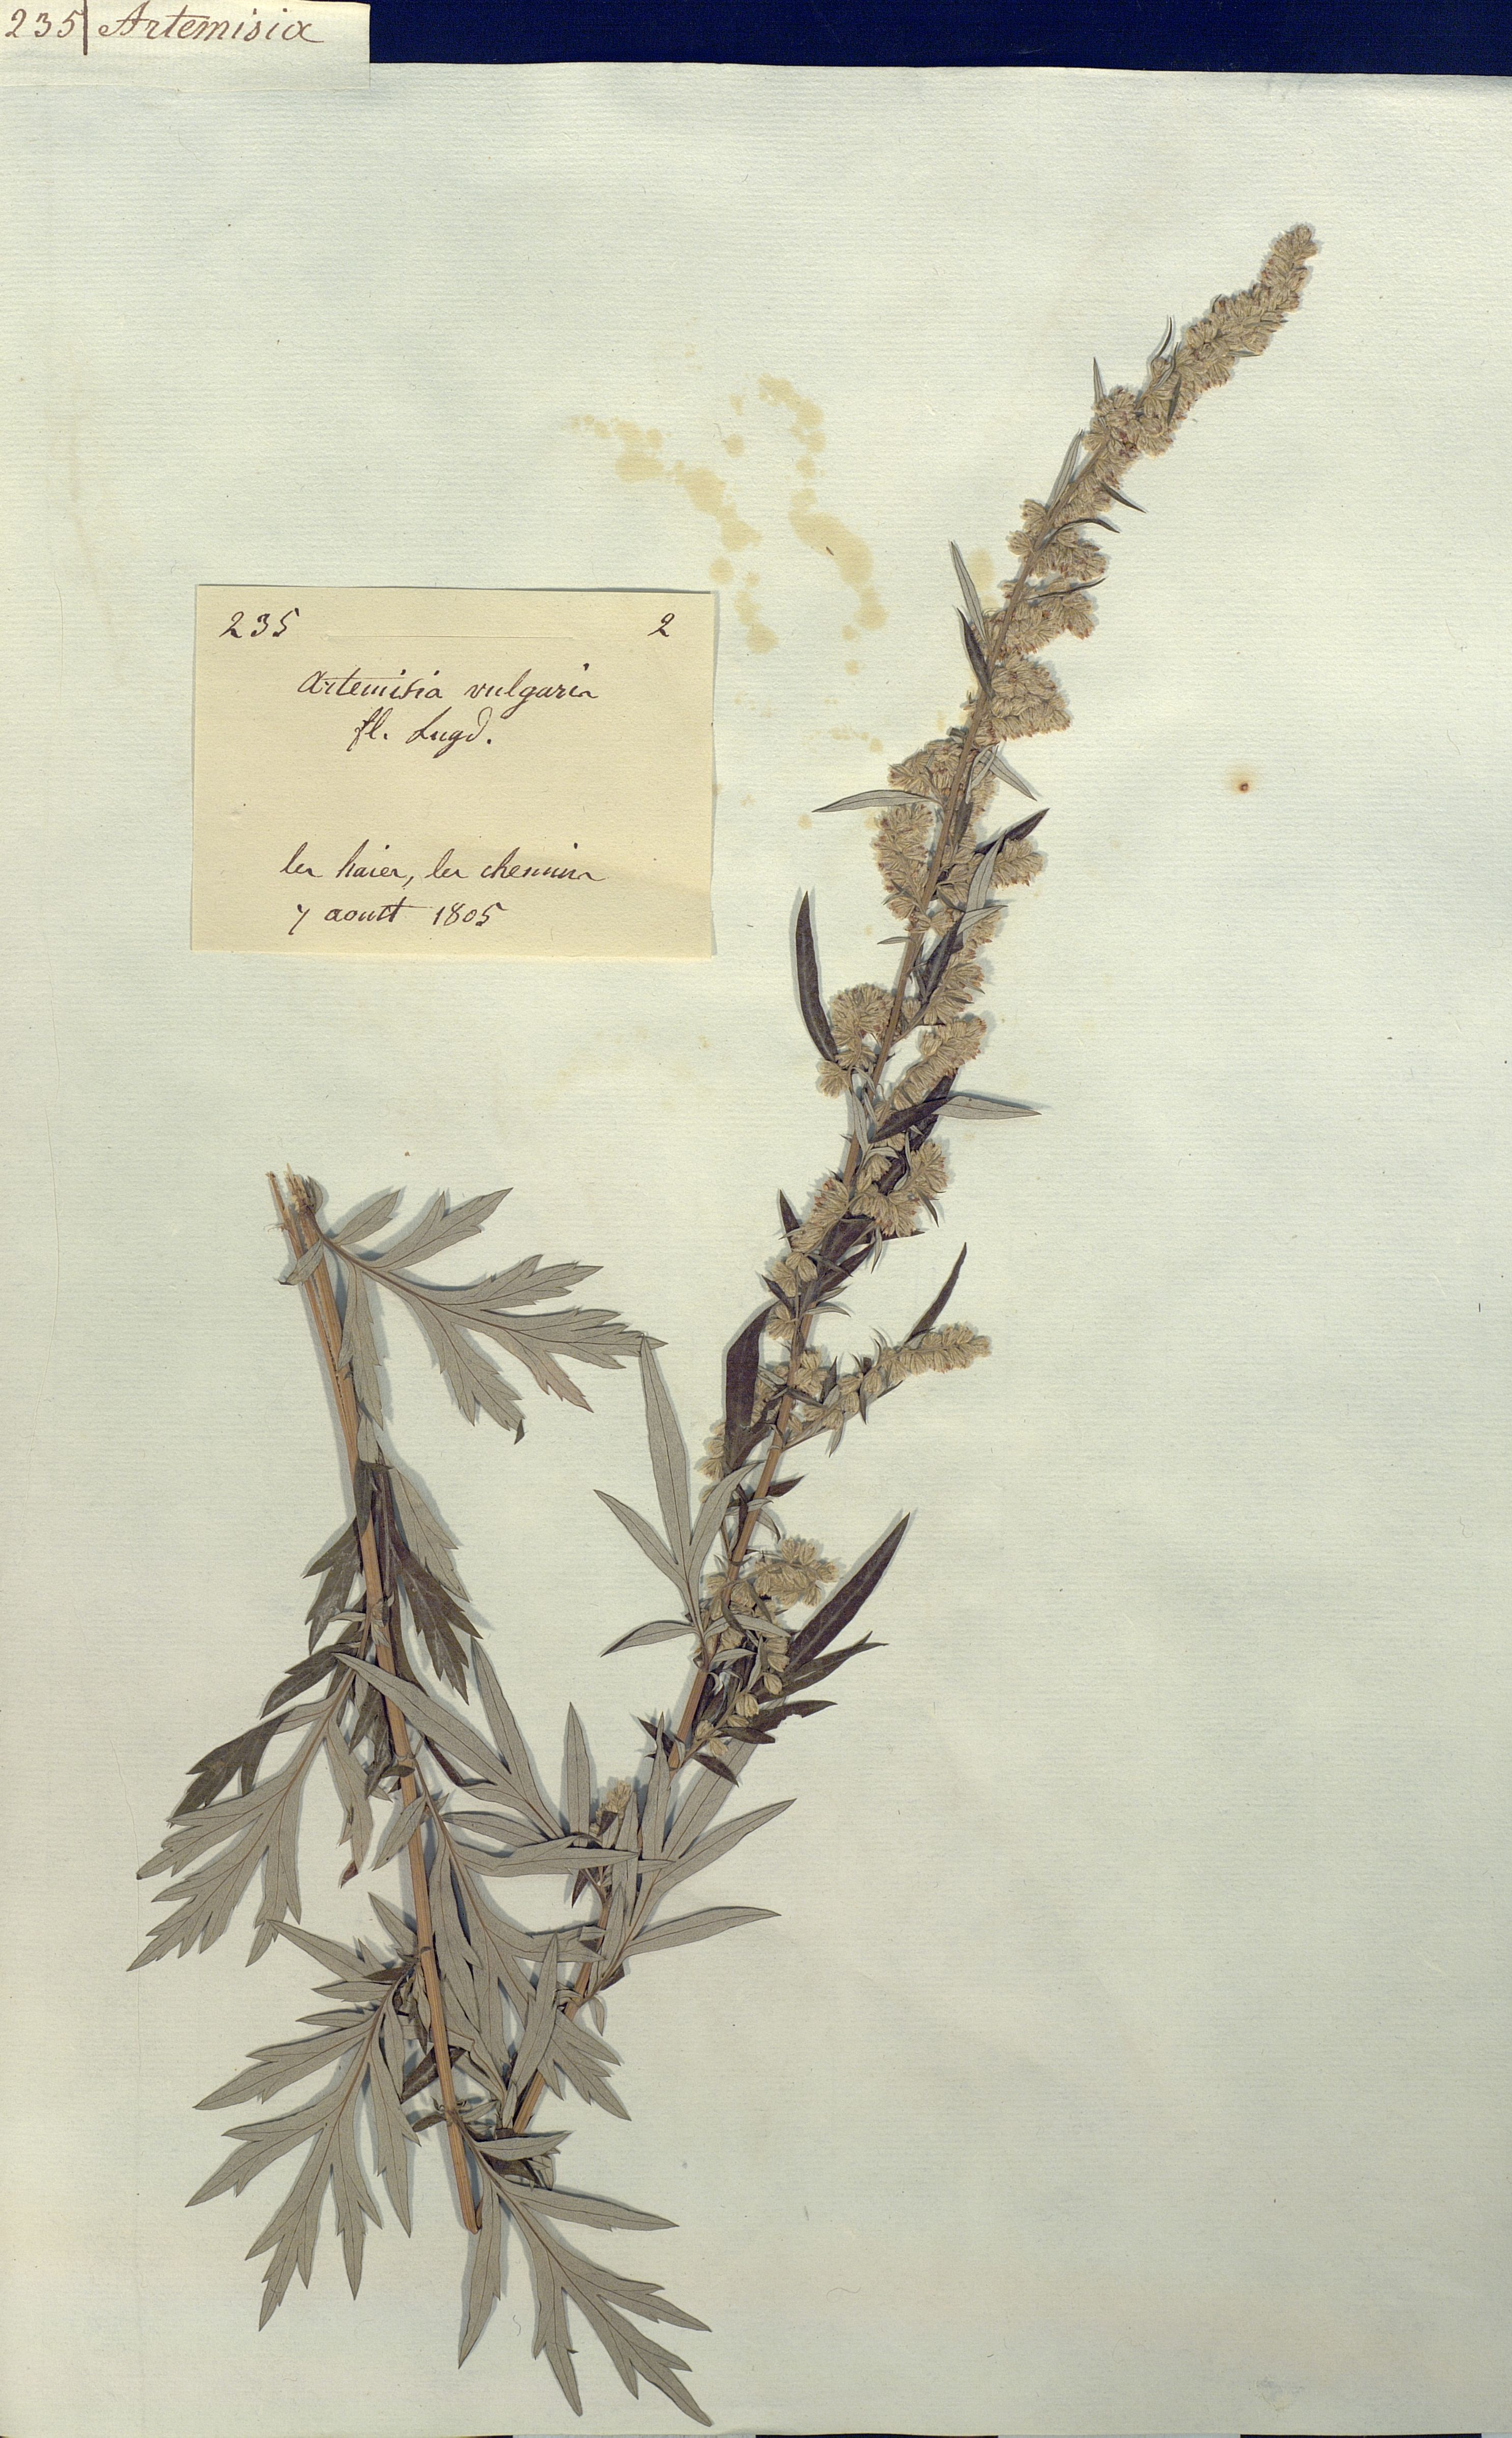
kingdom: Plantae
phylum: Tracheophyta
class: Magnoliopsida
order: Asterales
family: Asteraceae
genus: Artemisia
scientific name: Artemisia vulgaris
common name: Mugwort
